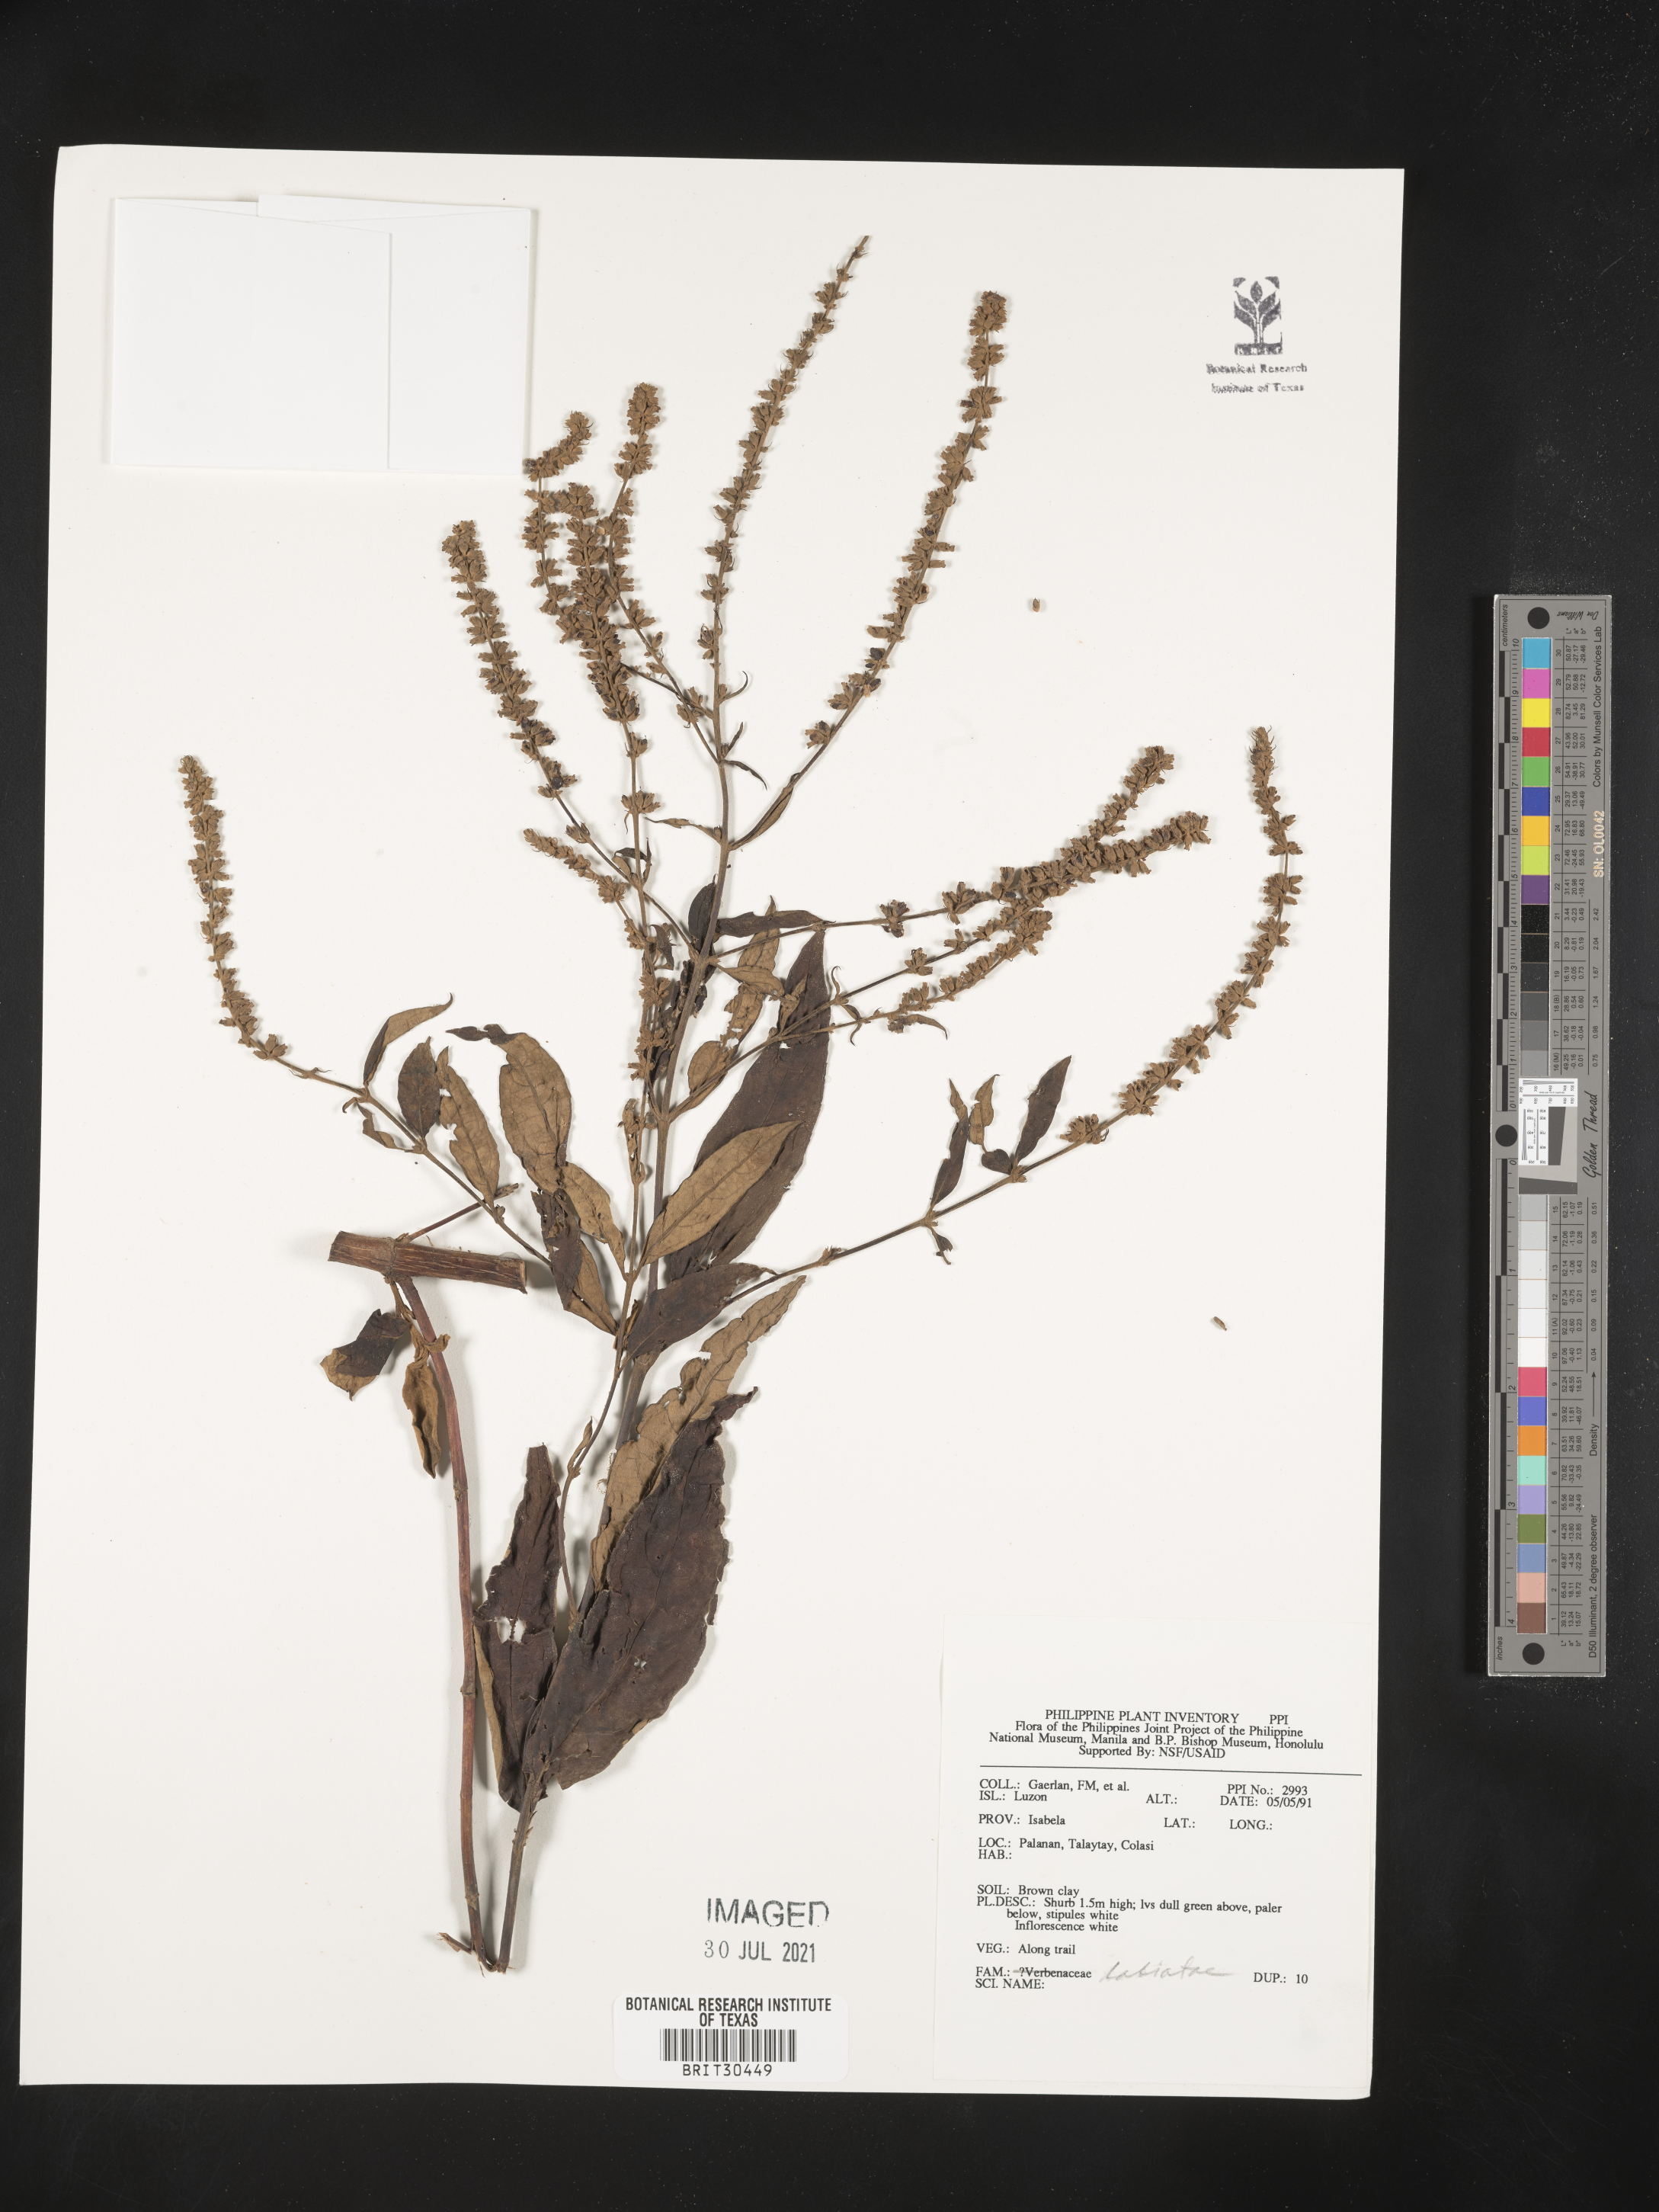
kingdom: Plantae
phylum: Tracheophyta
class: Magnoliopsida
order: Lamiales
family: Lamiaceae
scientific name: Lamiaceae
